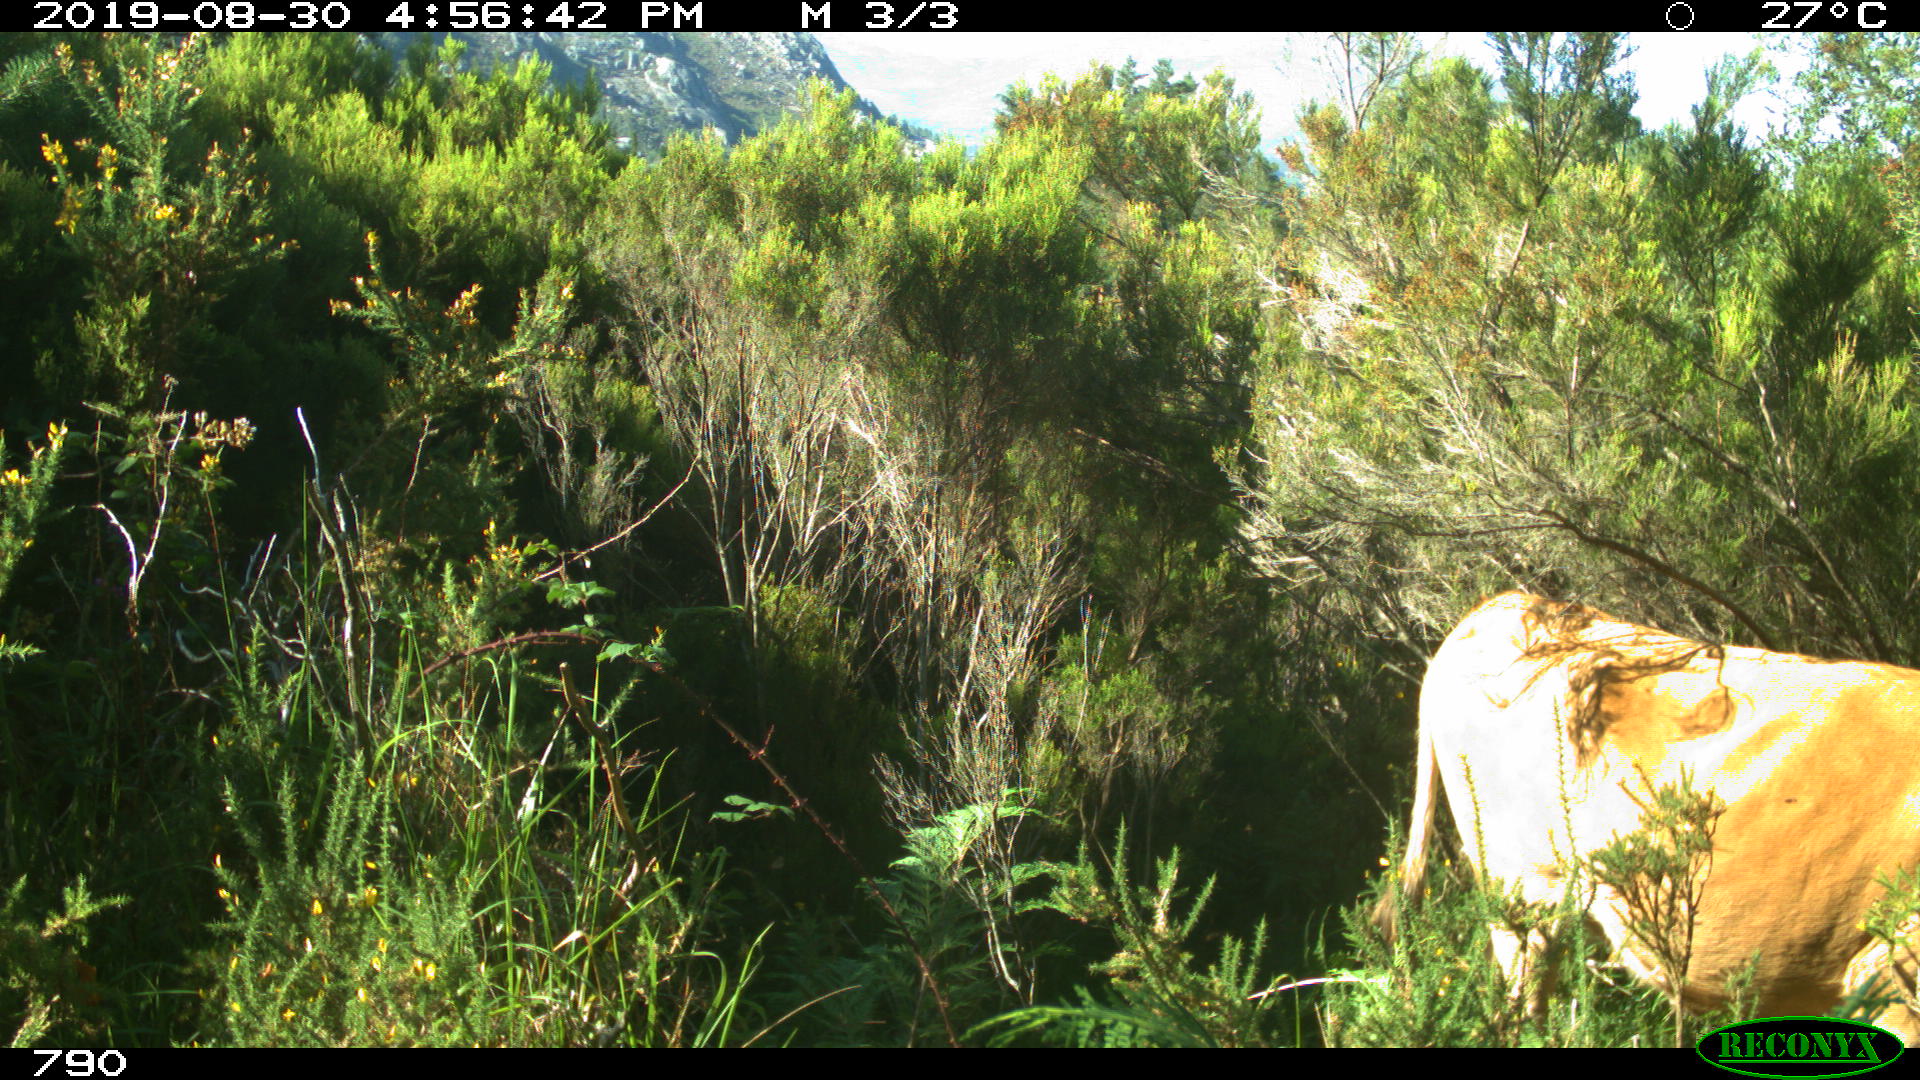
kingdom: Animalia
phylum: Chordata
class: Mammalia
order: Artiodactyla
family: Bovidae
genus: Bos
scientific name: Bos taurus
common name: Domesticated cattle
